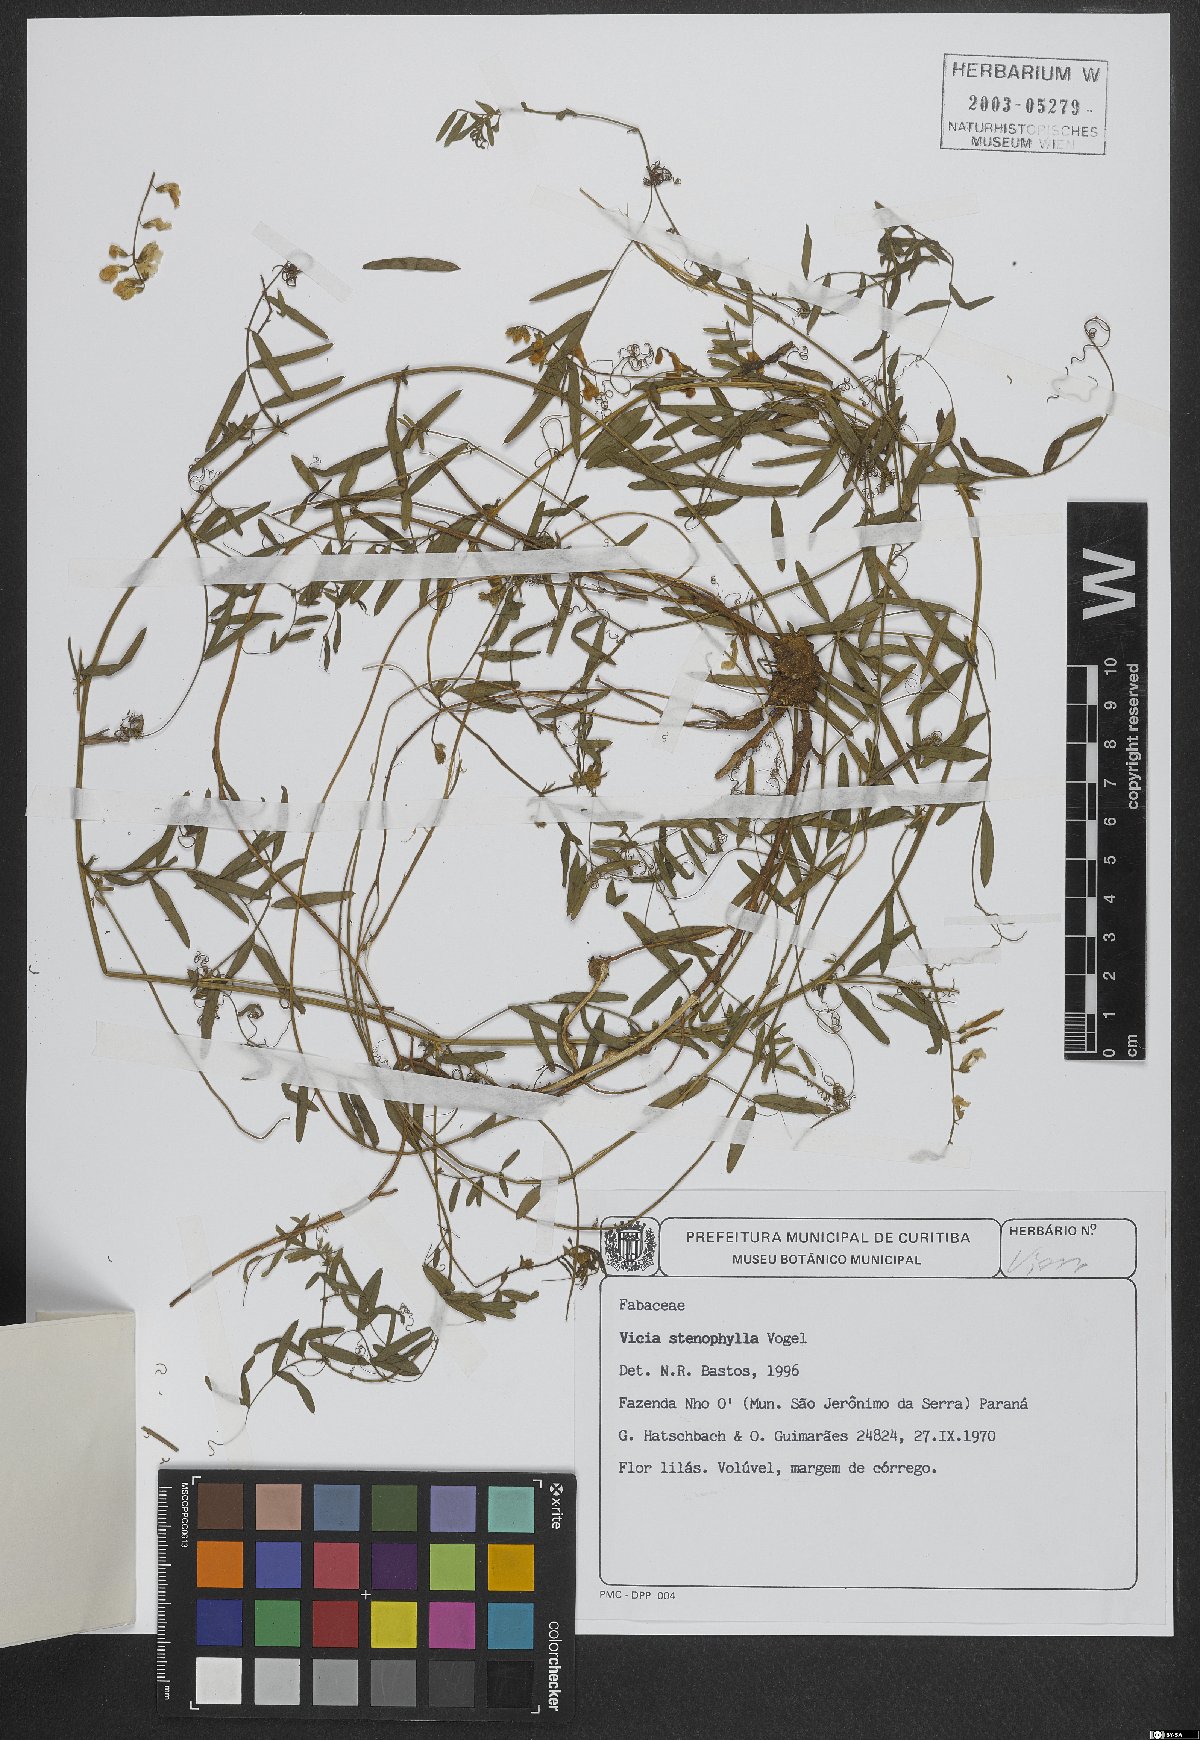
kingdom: Plantae
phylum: Tracheophyta
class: Magnoliopsida
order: Fabales
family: Fabaceae
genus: Vicia
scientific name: Vicia sativa
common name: Garden vetch
